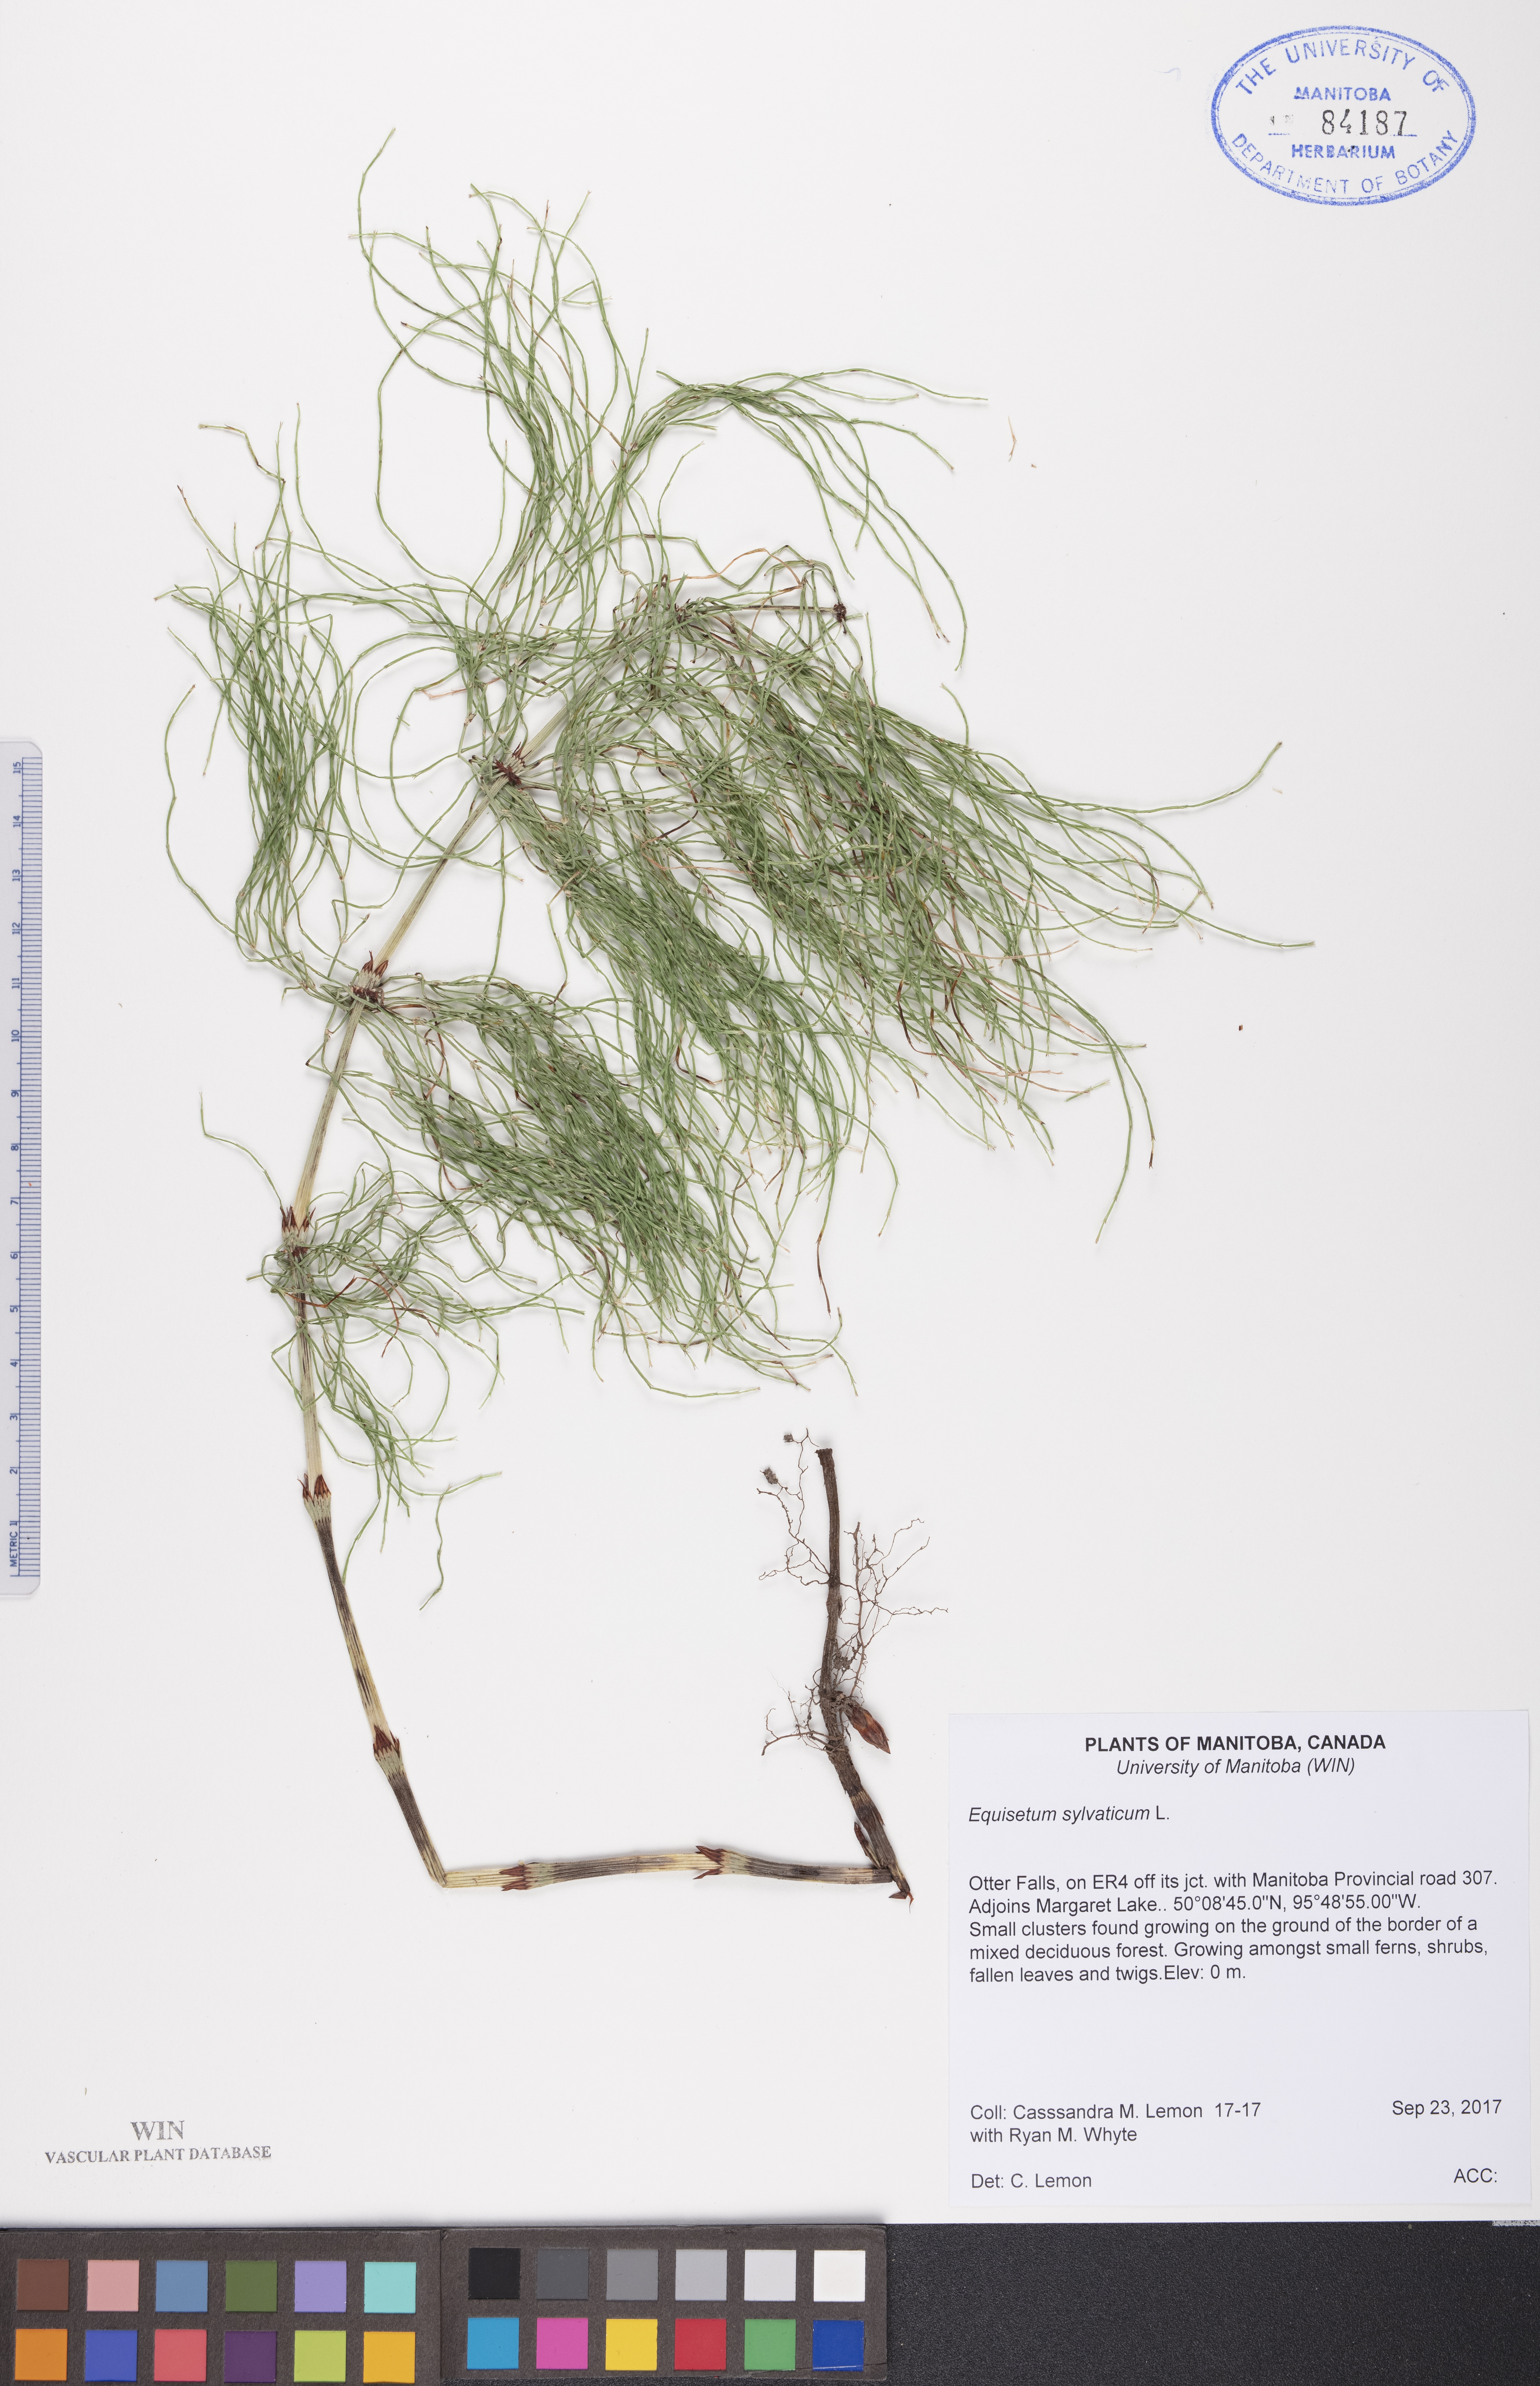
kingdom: Plantae
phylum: Tracheophyta
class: Polypodiopsida
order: Equisetales
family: Equisetaceae
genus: Equisetum
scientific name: Equisetum sylvaticum
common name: Wood horsetail
